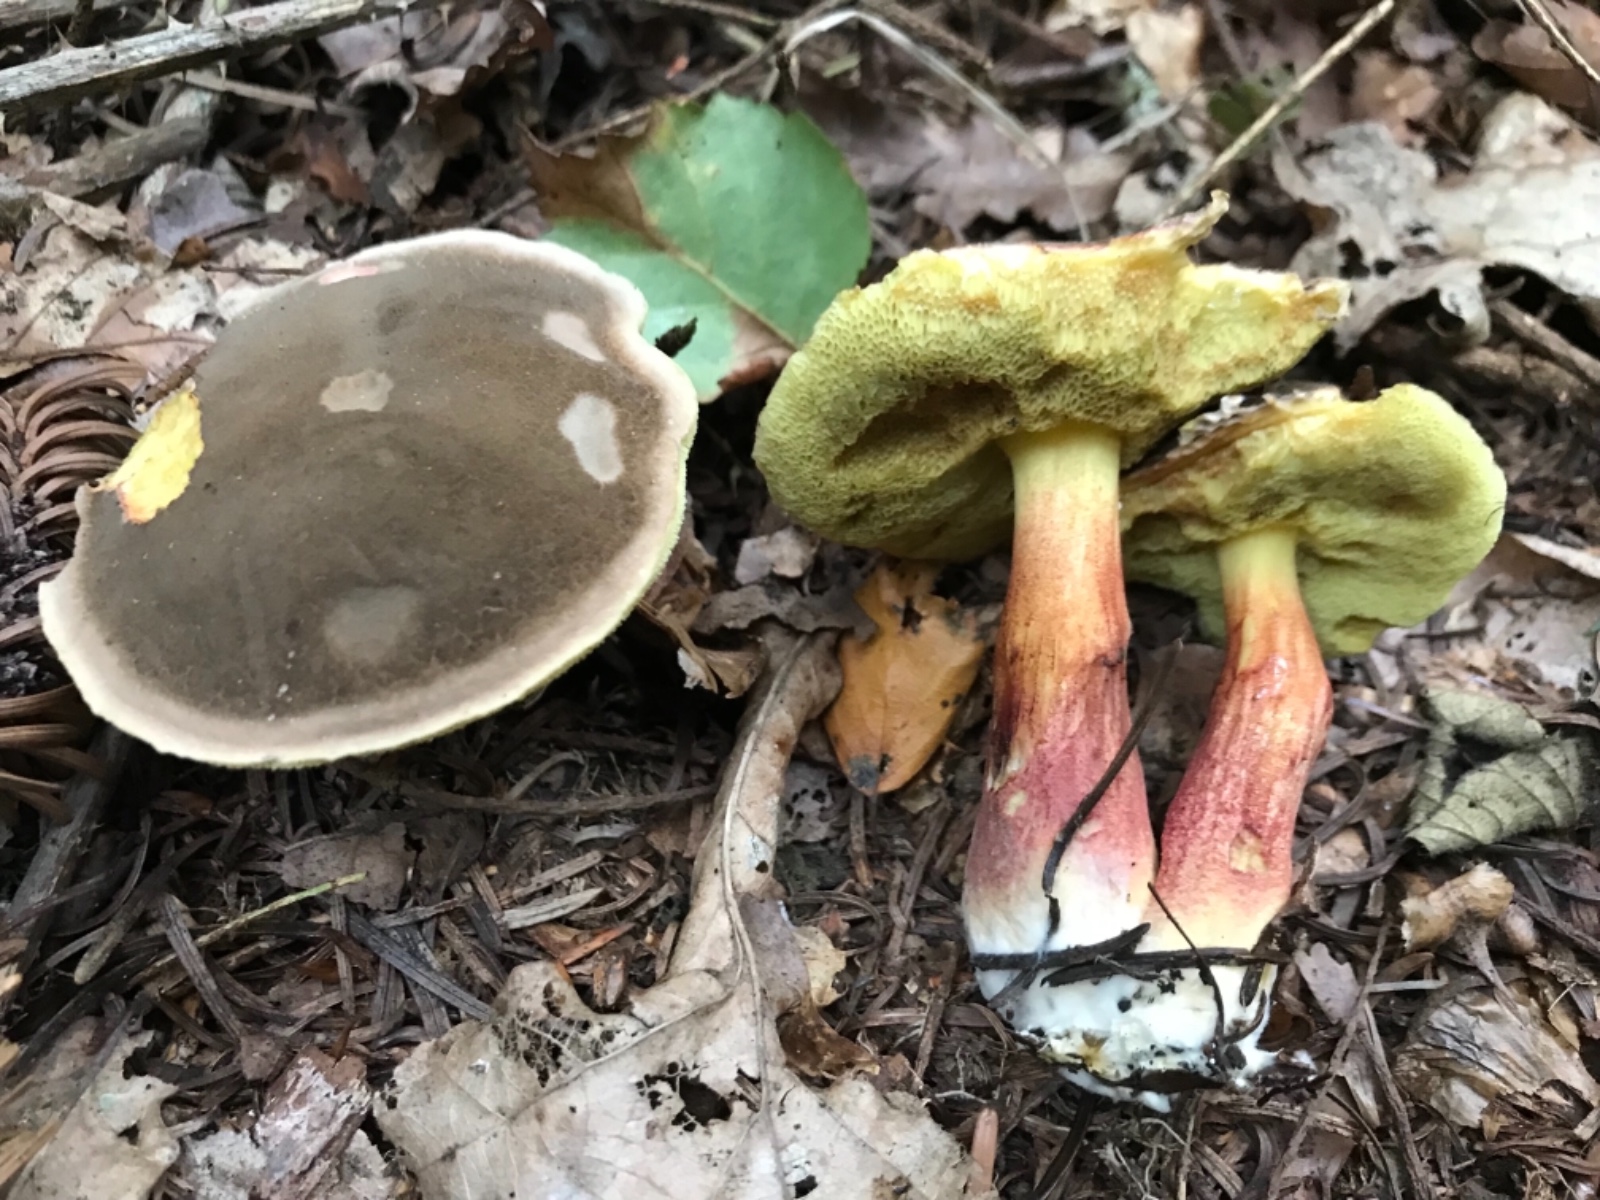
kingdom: Fungi
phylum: Basidiomycota
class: Agaricomycetes
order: Boletales
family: Boletaceae
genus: Xerocomellus
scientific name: Xerocomellus
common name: dværgrørhat
